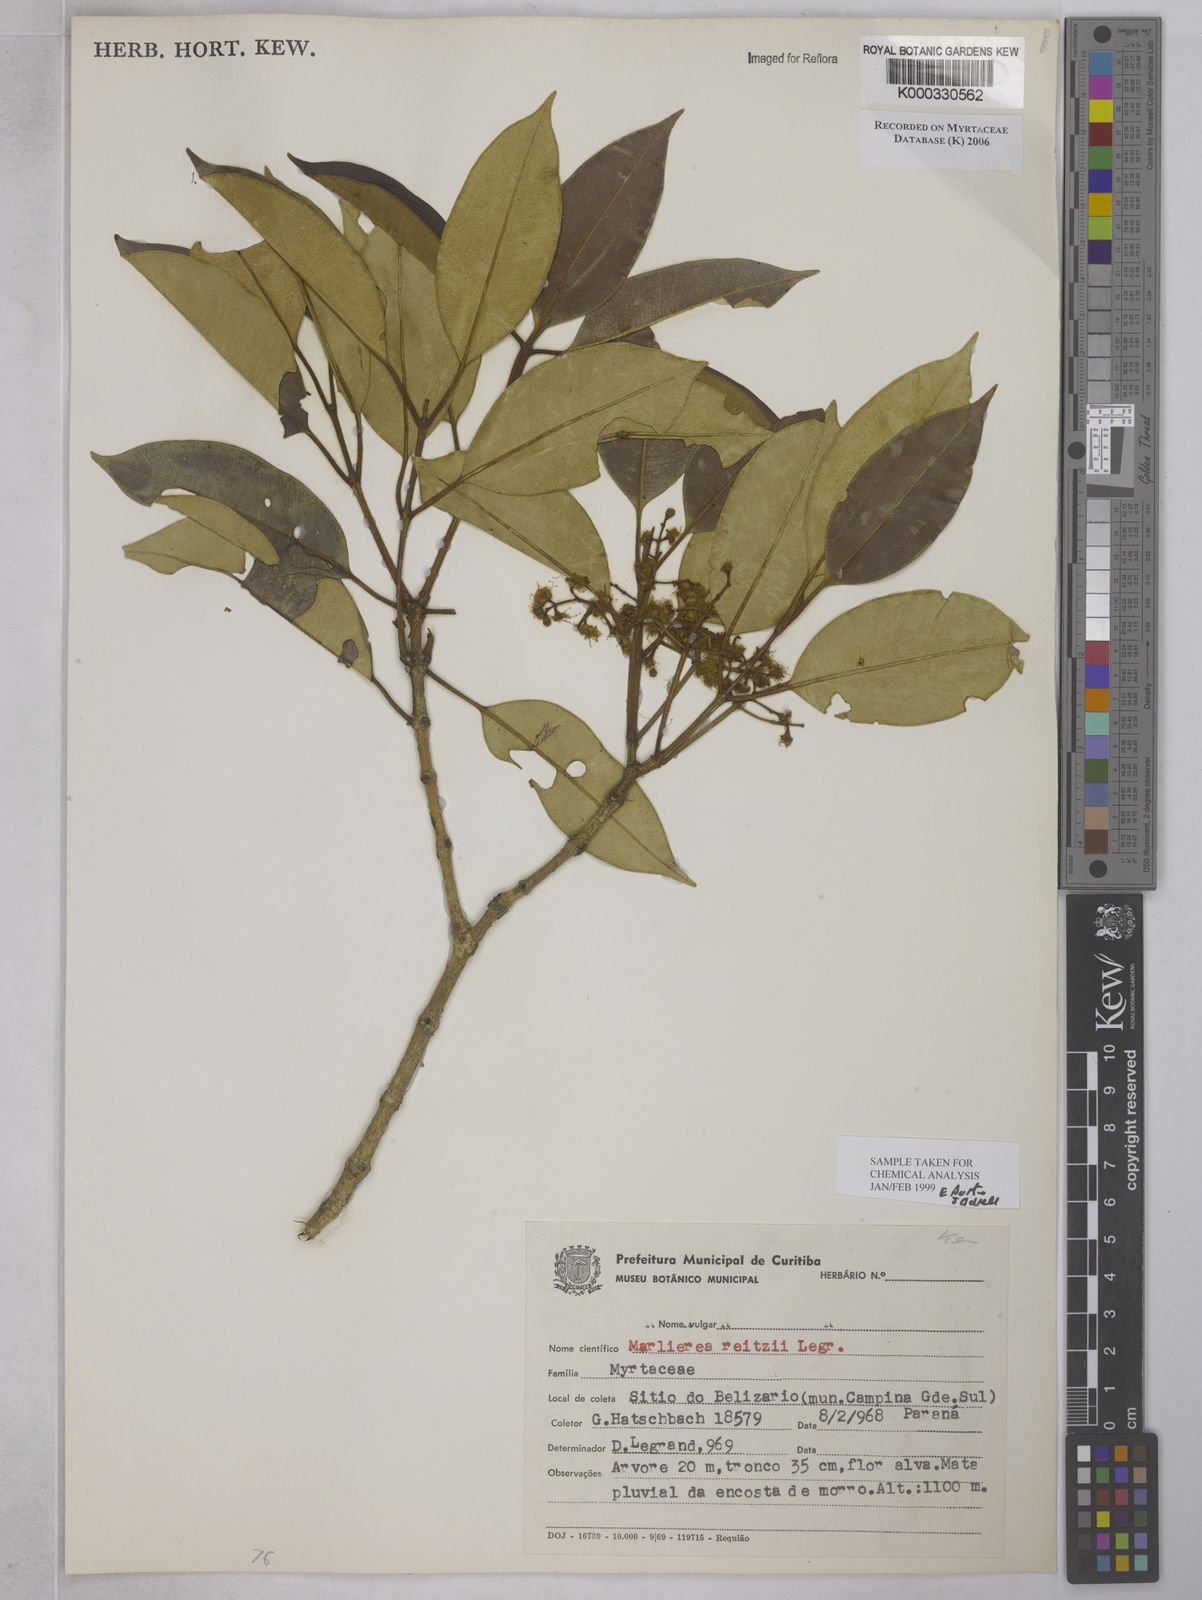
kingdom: Plantae
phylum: Tracheophyta
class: Magnoliopsida
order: Myrtales
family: Myrtaceae
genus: Myrcia
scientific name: Myrcia reitzii
